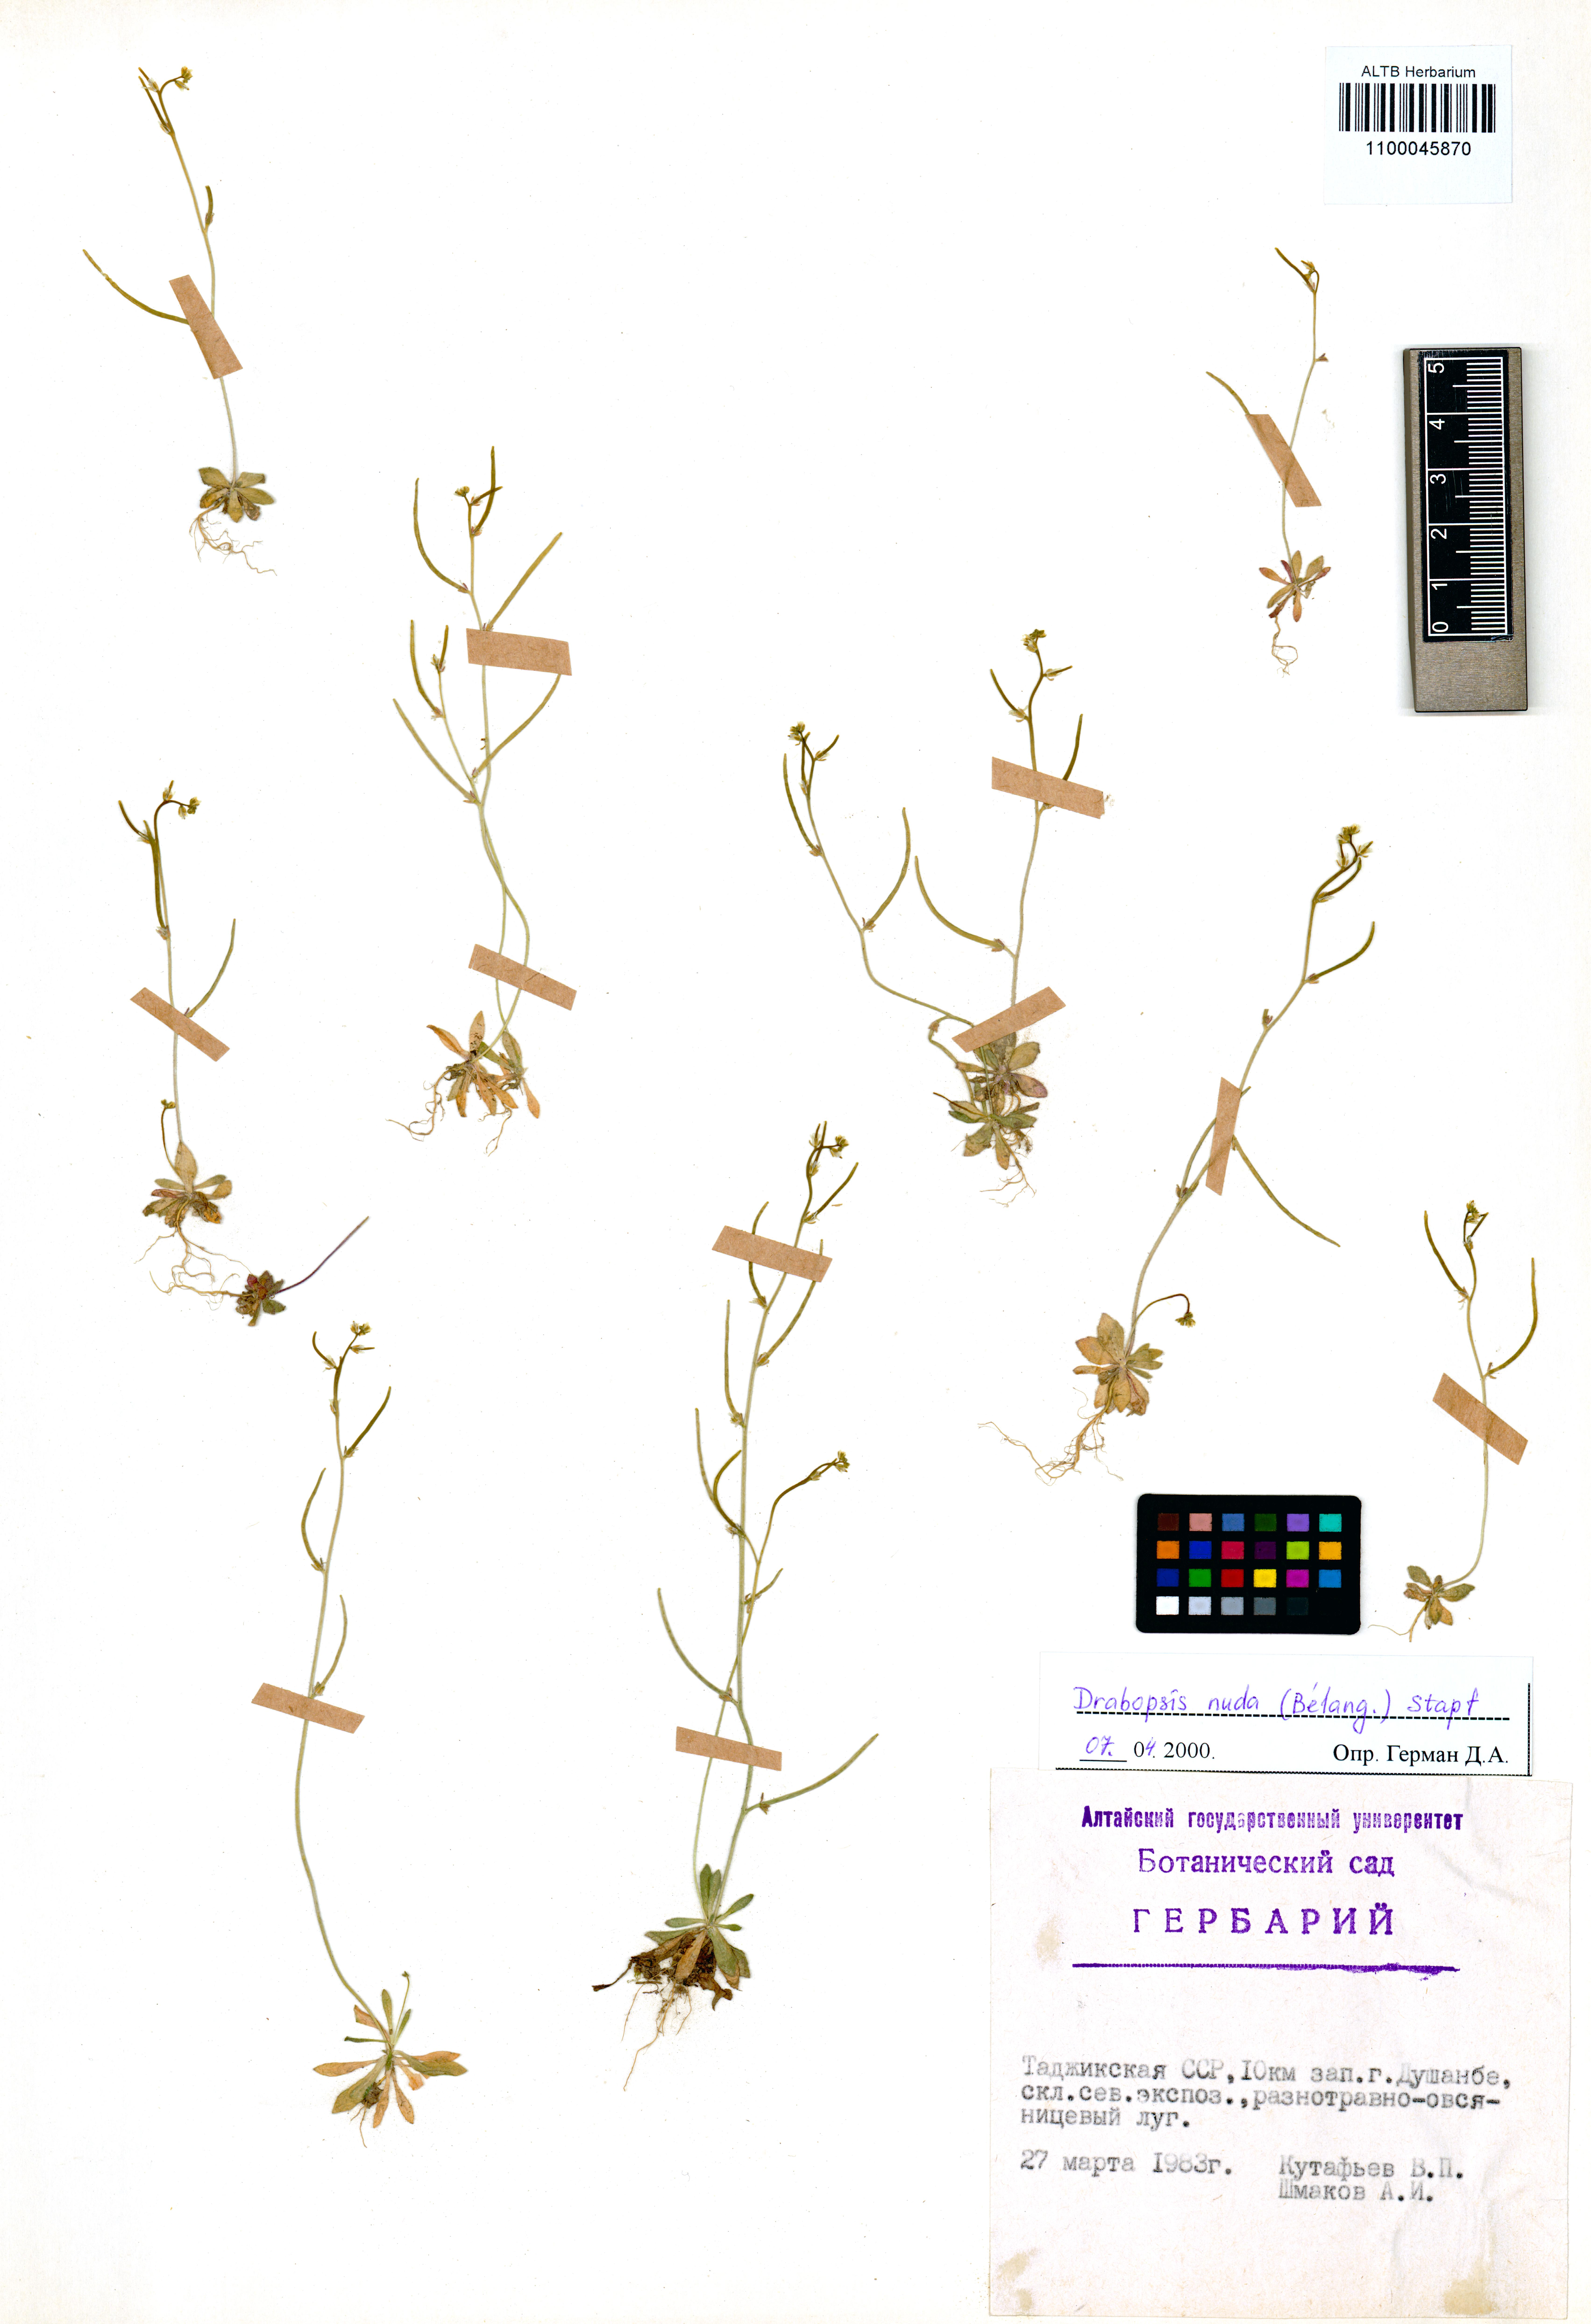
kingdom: Plantae
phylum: Tracheophyta
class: Magnoliopsida
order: Brassicales
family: Brassicaceae
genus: Draba
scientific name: Draba nuda
